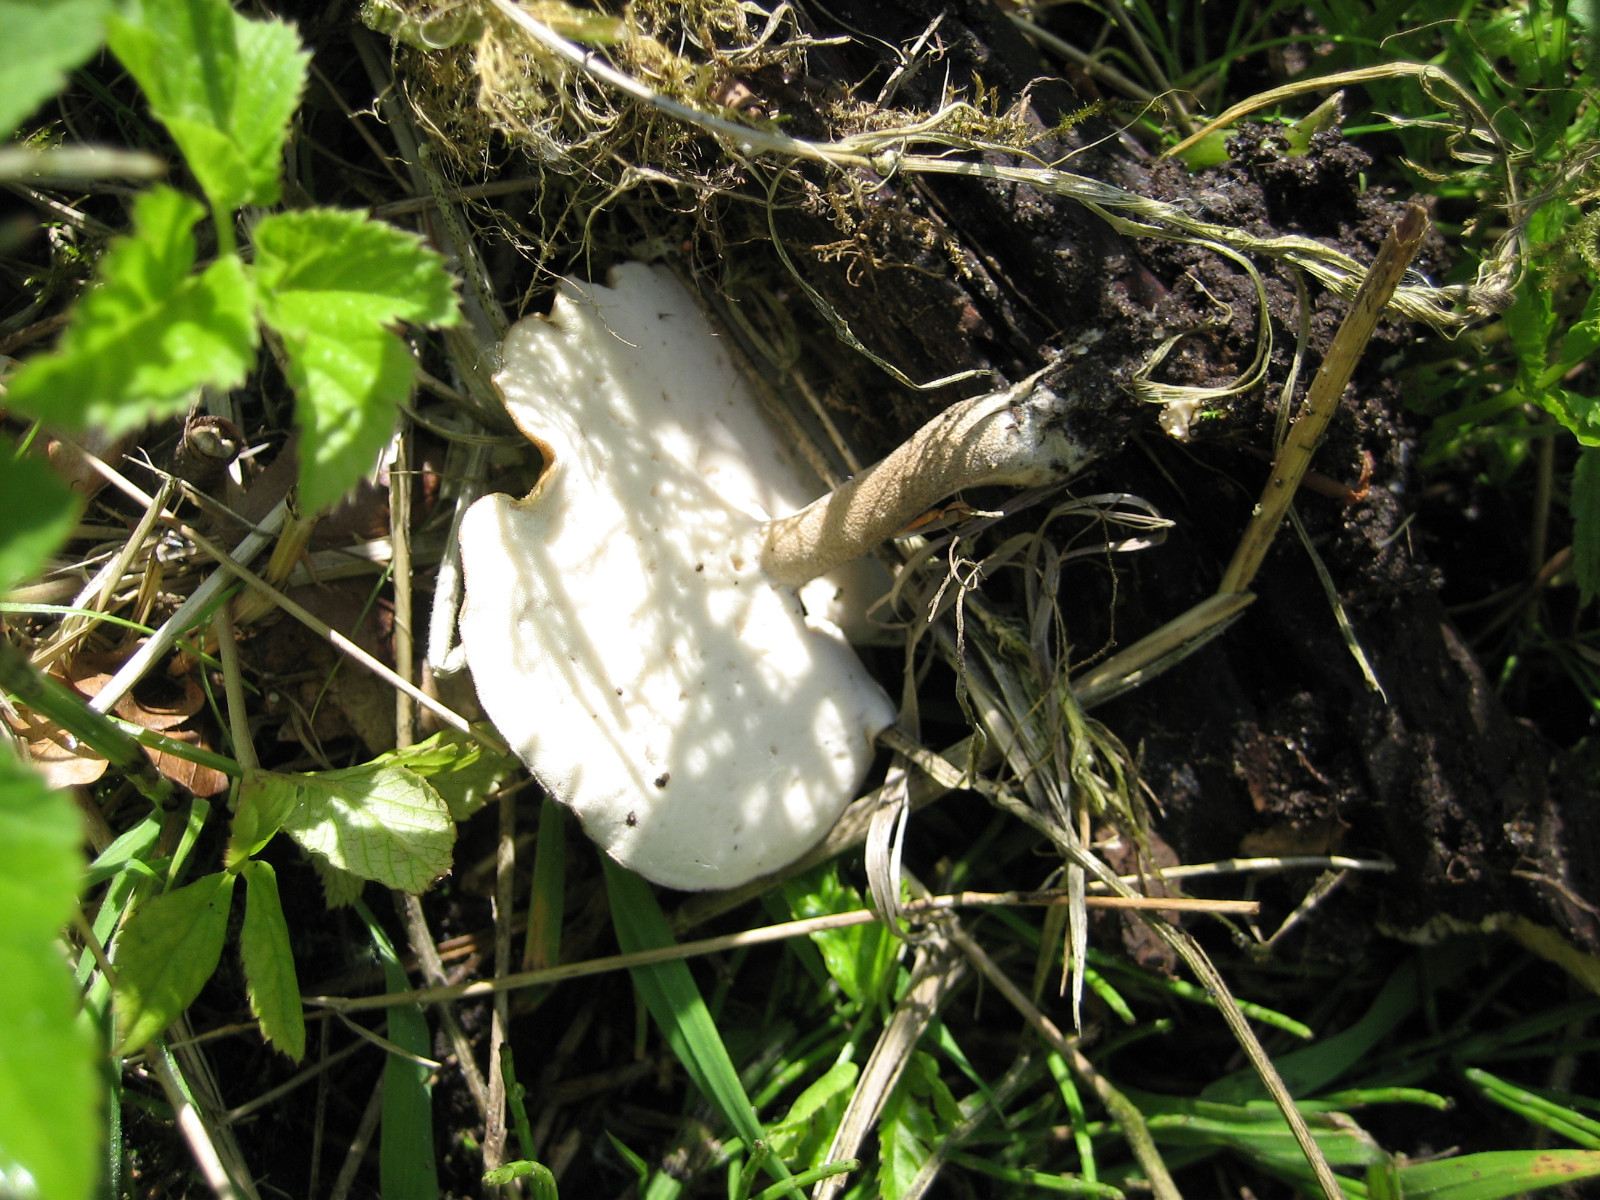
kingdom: Fungi
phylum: Basidiomycota
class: Agaricomycetes
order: Polyporales
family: Polyporaceae
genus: Lentinus
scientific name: Lentinus substrictus
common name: forårs-stilkporesvamp
